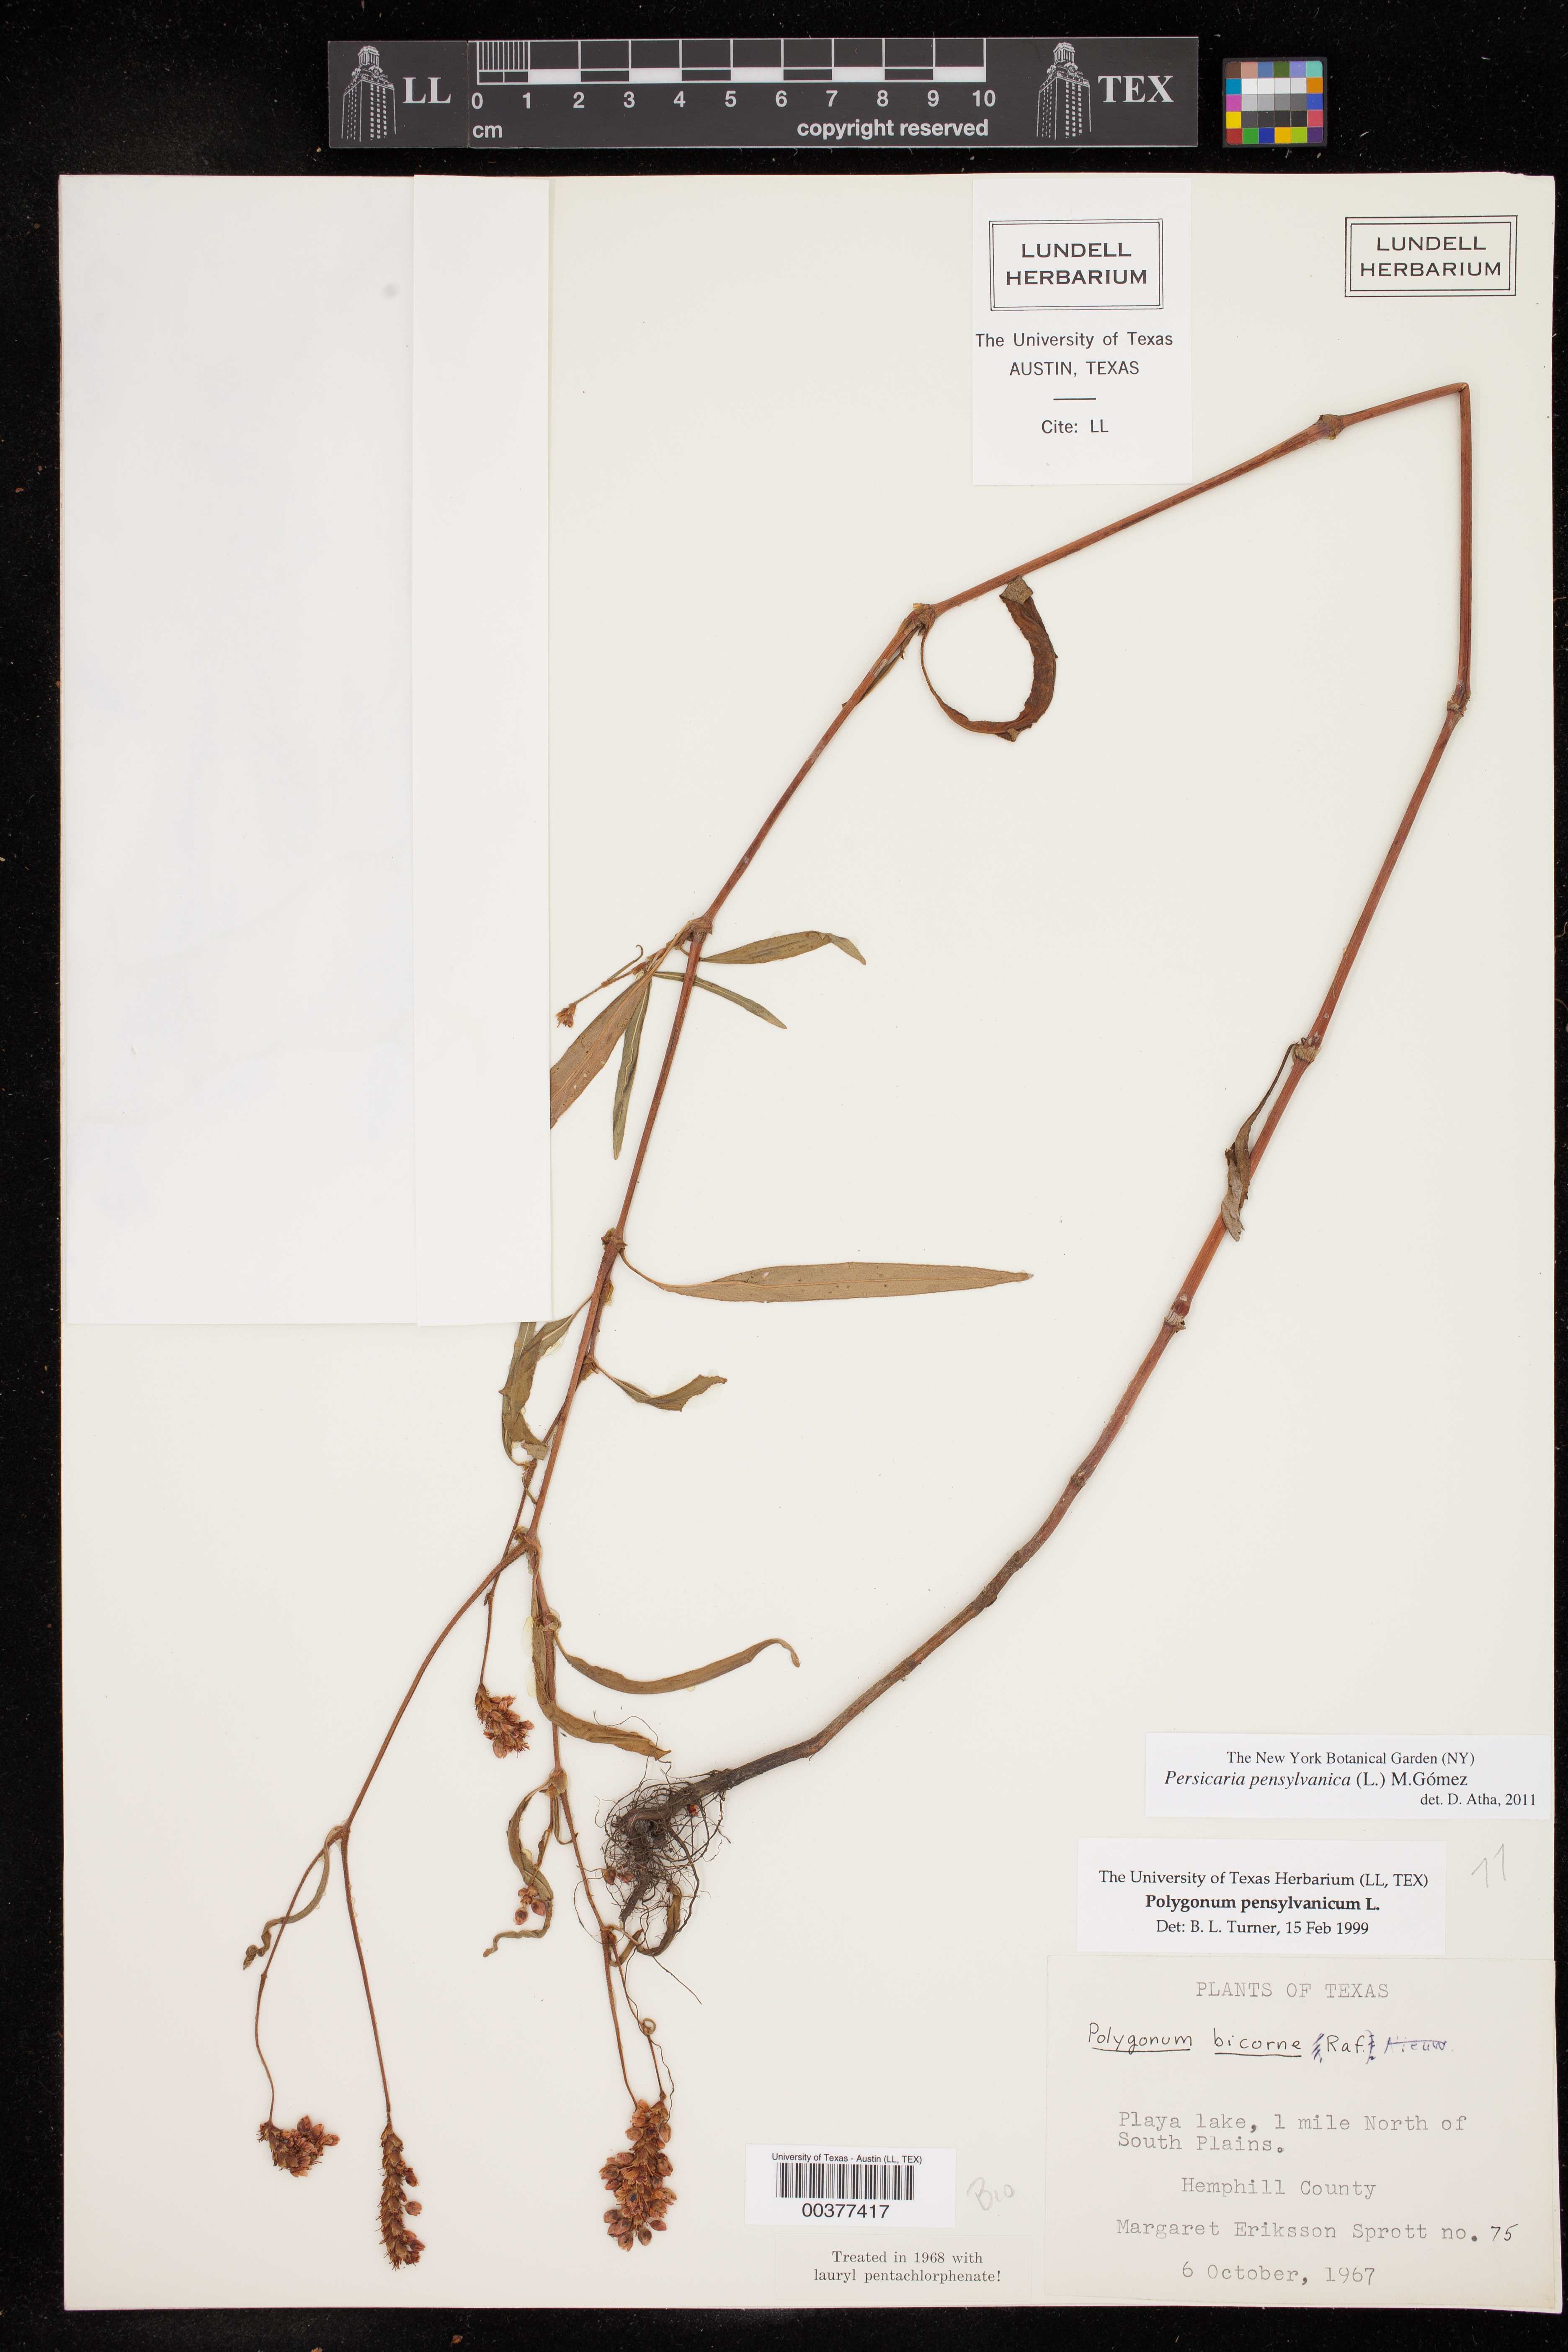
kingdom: Plantae
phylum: Tracheophyta
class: Magnoliopsida
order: Caryophyllales
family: Polygonaceae
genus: Persicaria
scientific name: Persicaria pensylvanica
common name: Pinkweed
